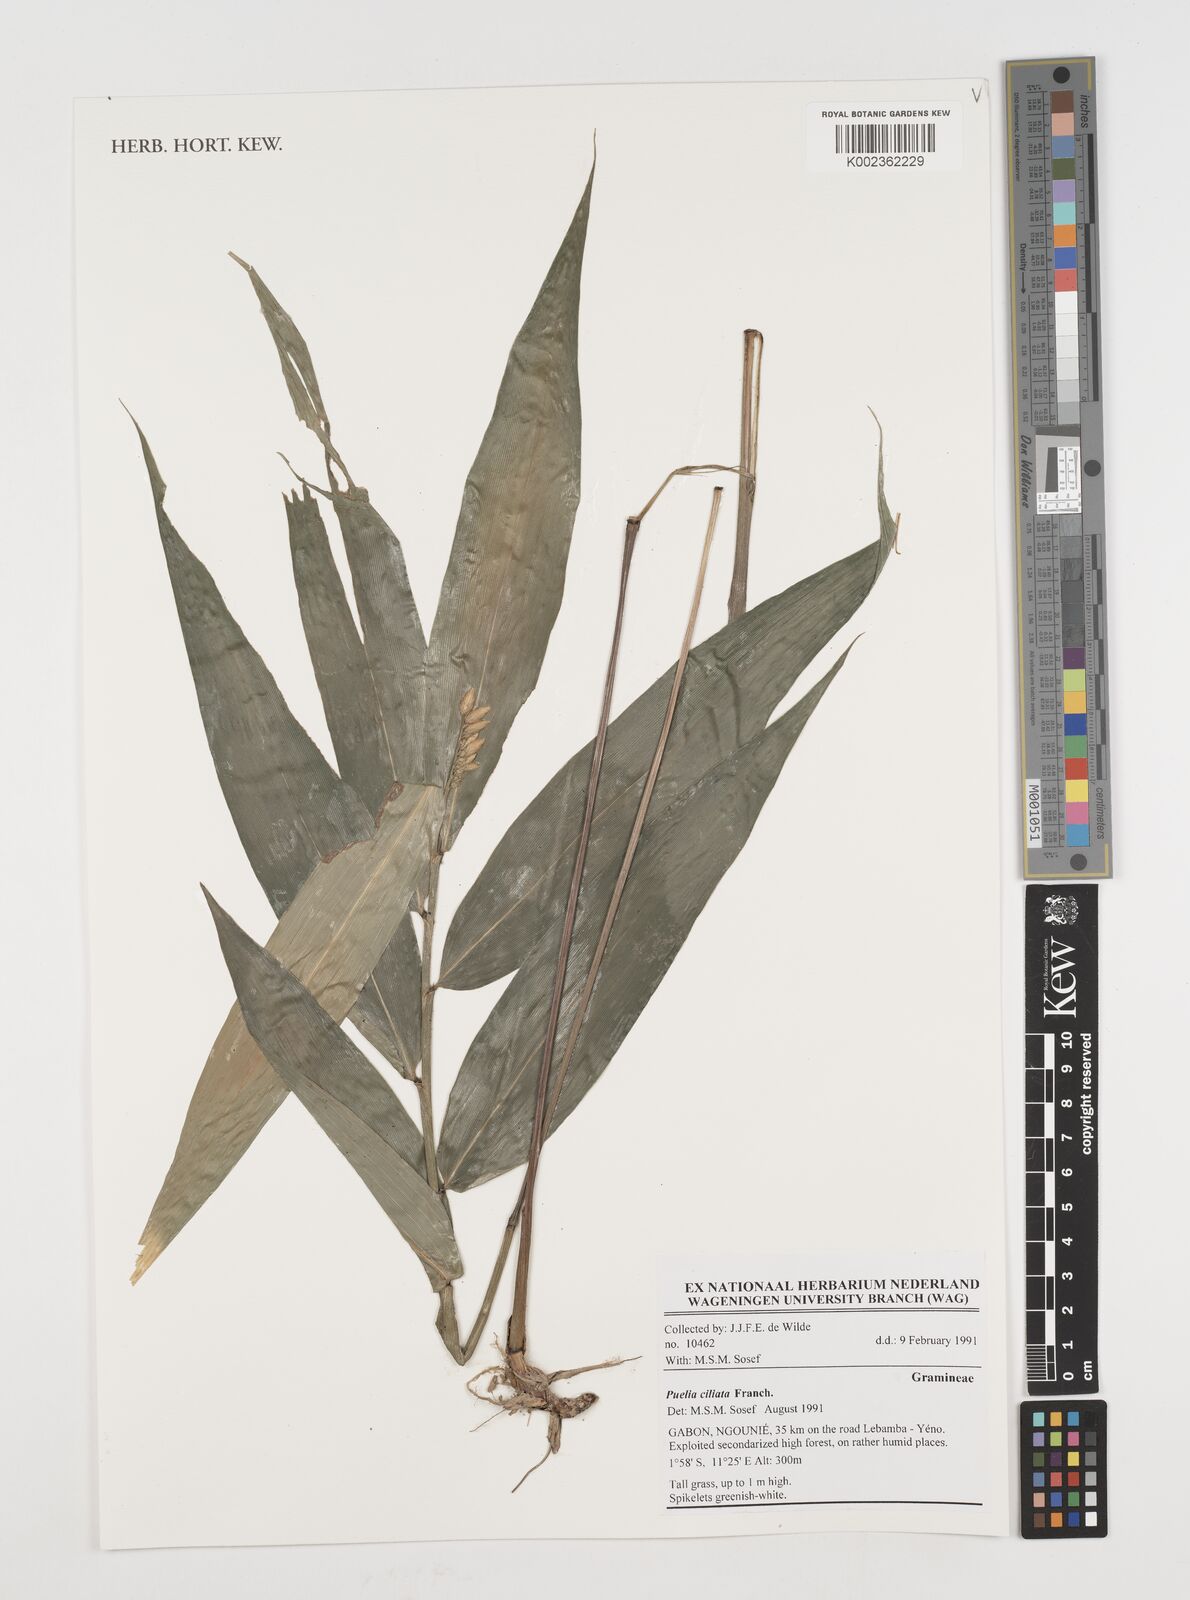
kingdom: Plantae
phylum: Tracheophyta
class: Liliopsida
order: Poales
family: Poaceae
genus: Puelia
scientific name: Puelia ciliata
